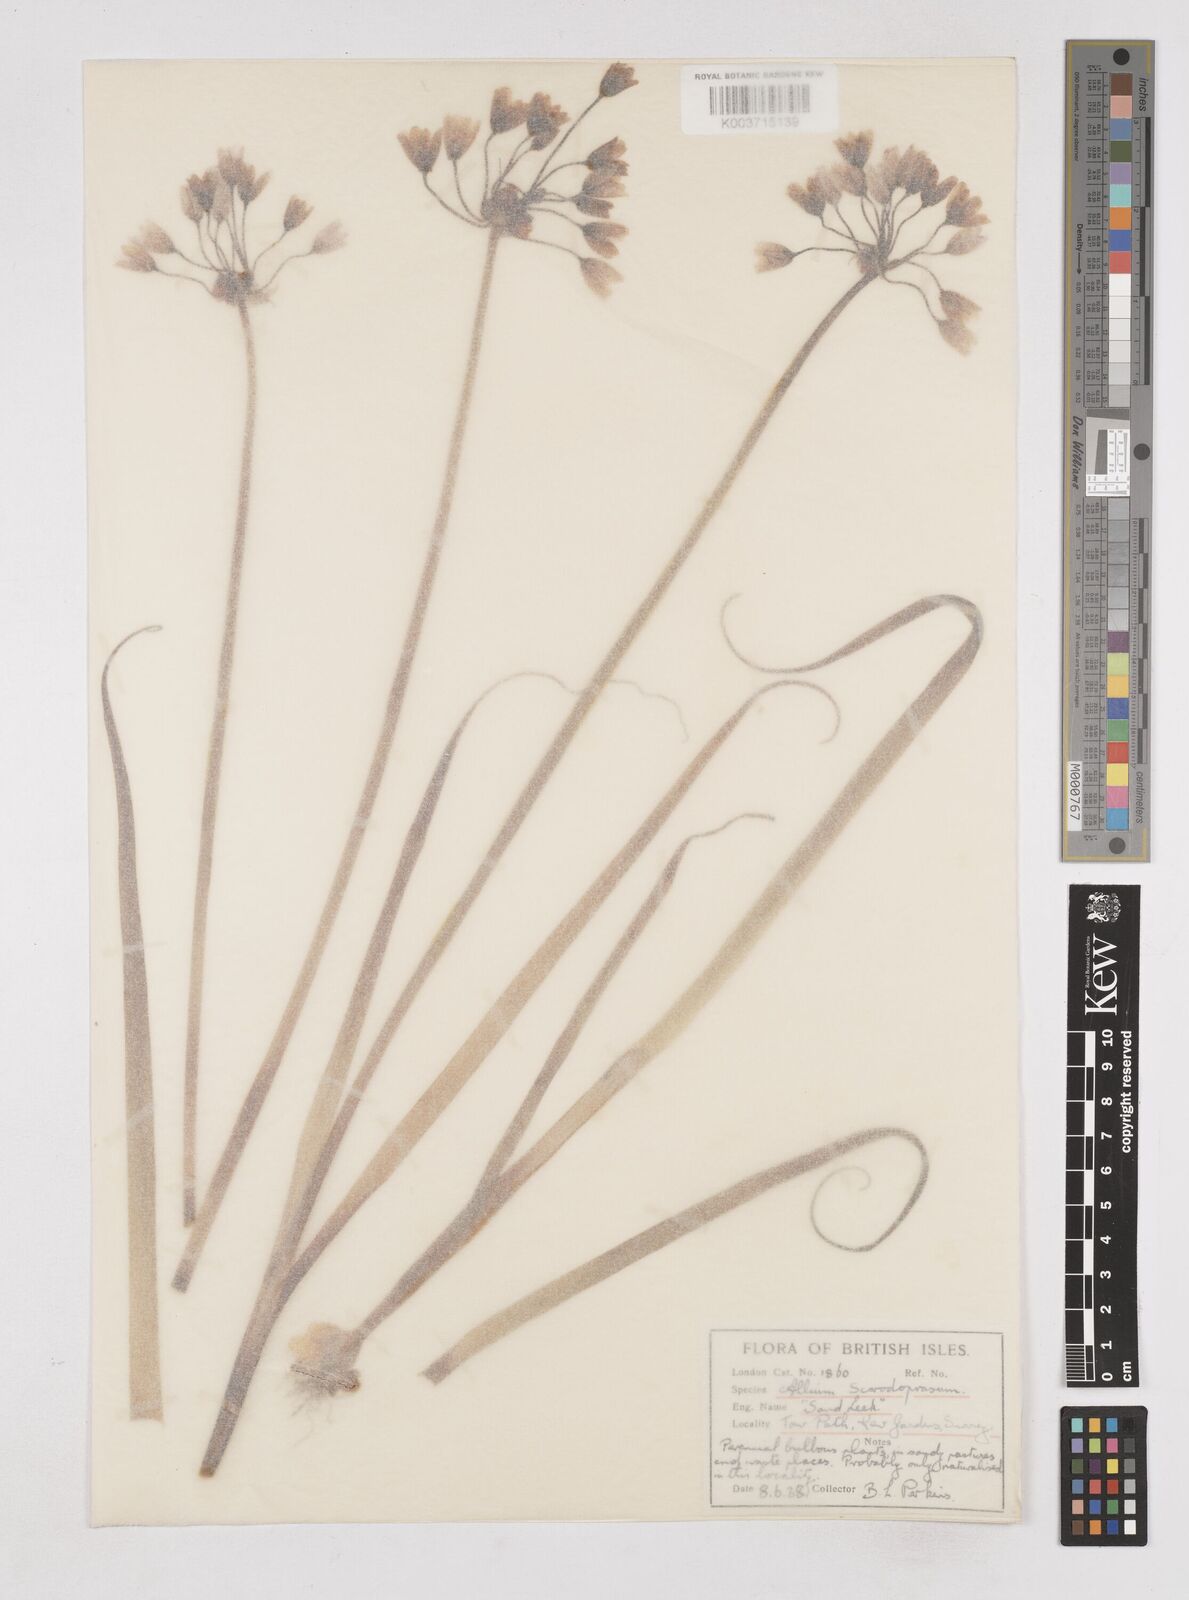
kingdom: Plantae
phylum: Tracheophyta
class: Liliopsida
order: Asparagales
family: Amaryllidaceae
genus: Allium
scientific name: Allium roseum
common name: Rosy garlic
